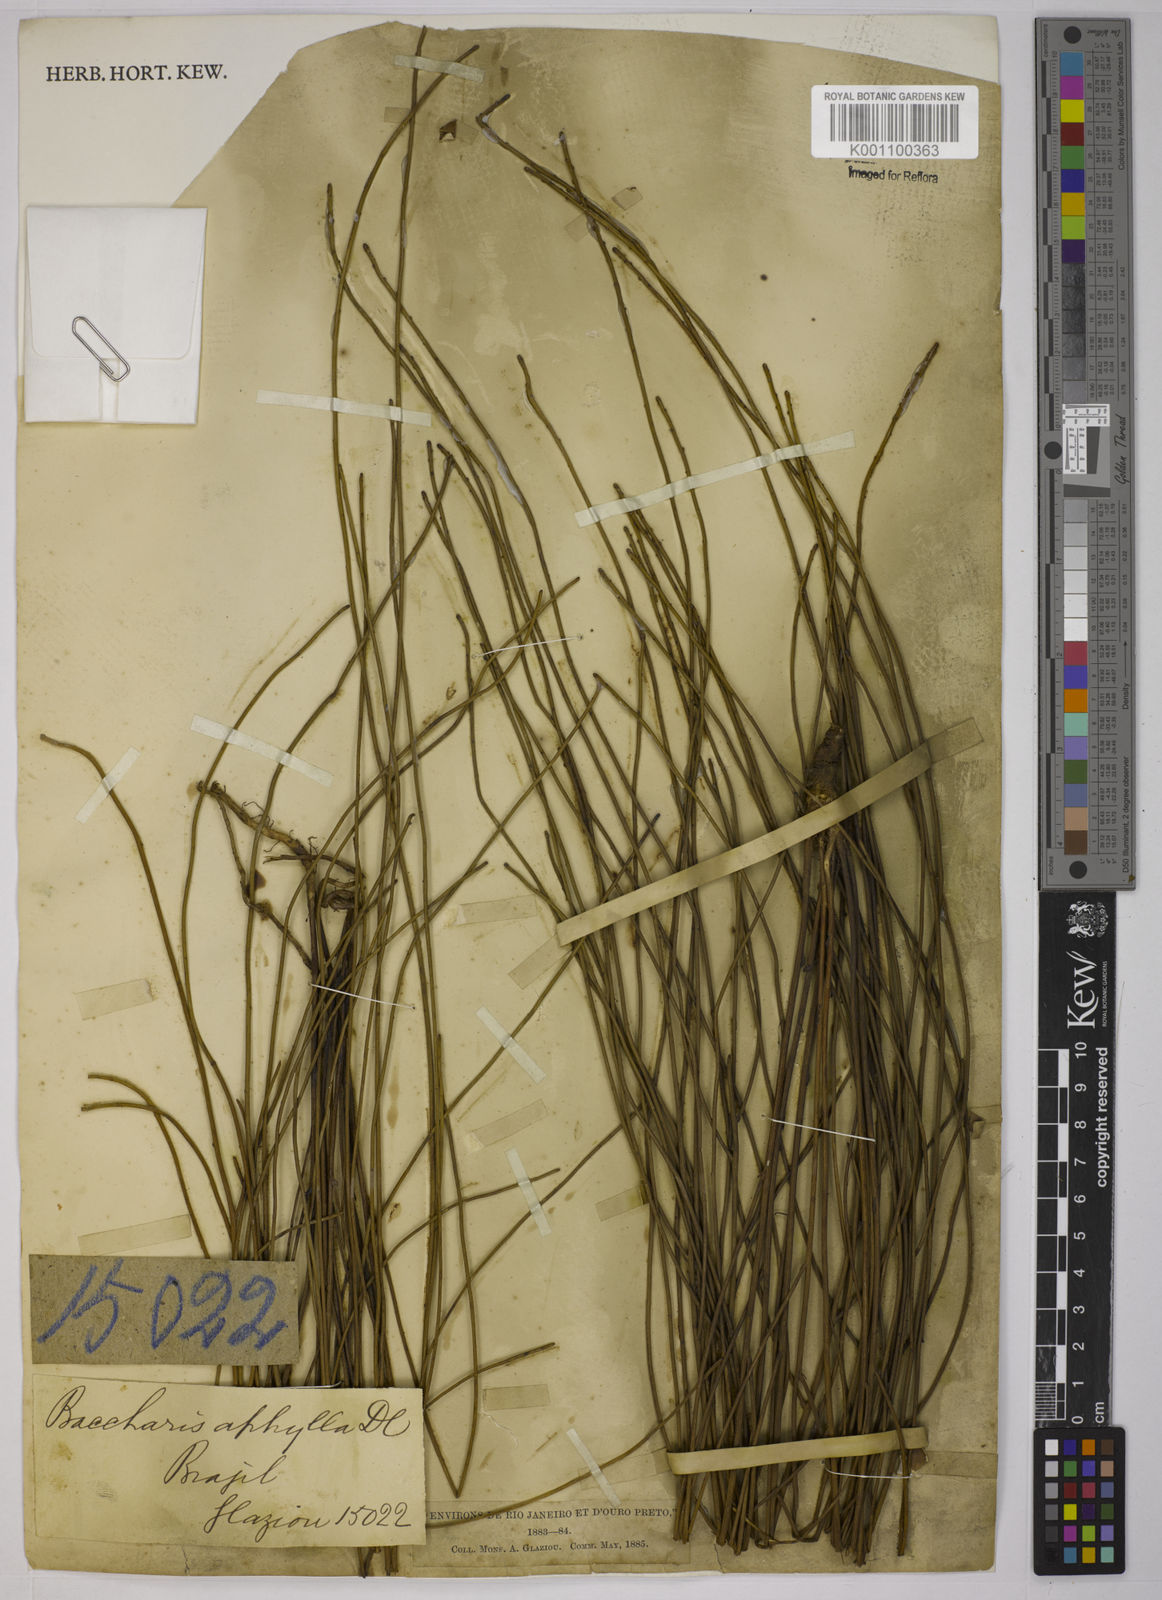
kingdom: Plantae
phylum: Tracheophyta
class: Magnoliopsida
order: Asterales
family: Asteraceae
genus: Baccharis
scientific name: Baccharis aphylla
